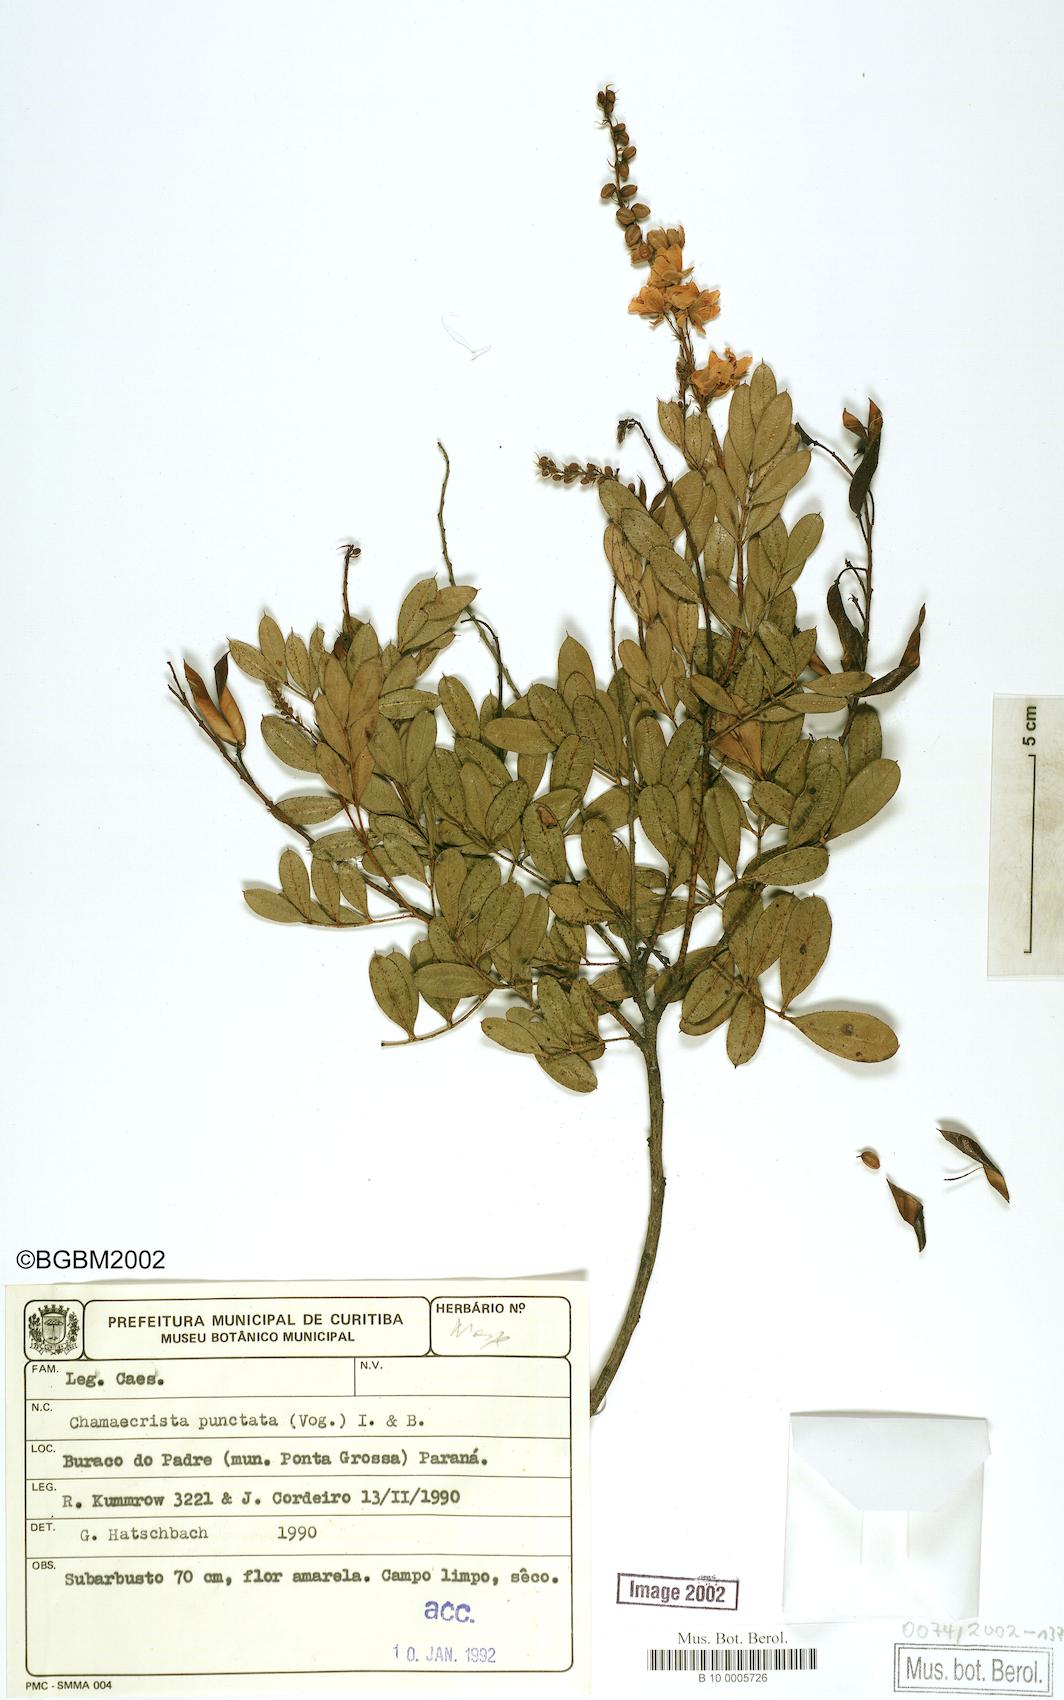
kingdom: Plantae
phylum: Tracheophyta
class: Magnoliopsida
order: Fabales
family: Fabaceae
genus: Chamaecrista
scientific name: Chamaecrista punctata
